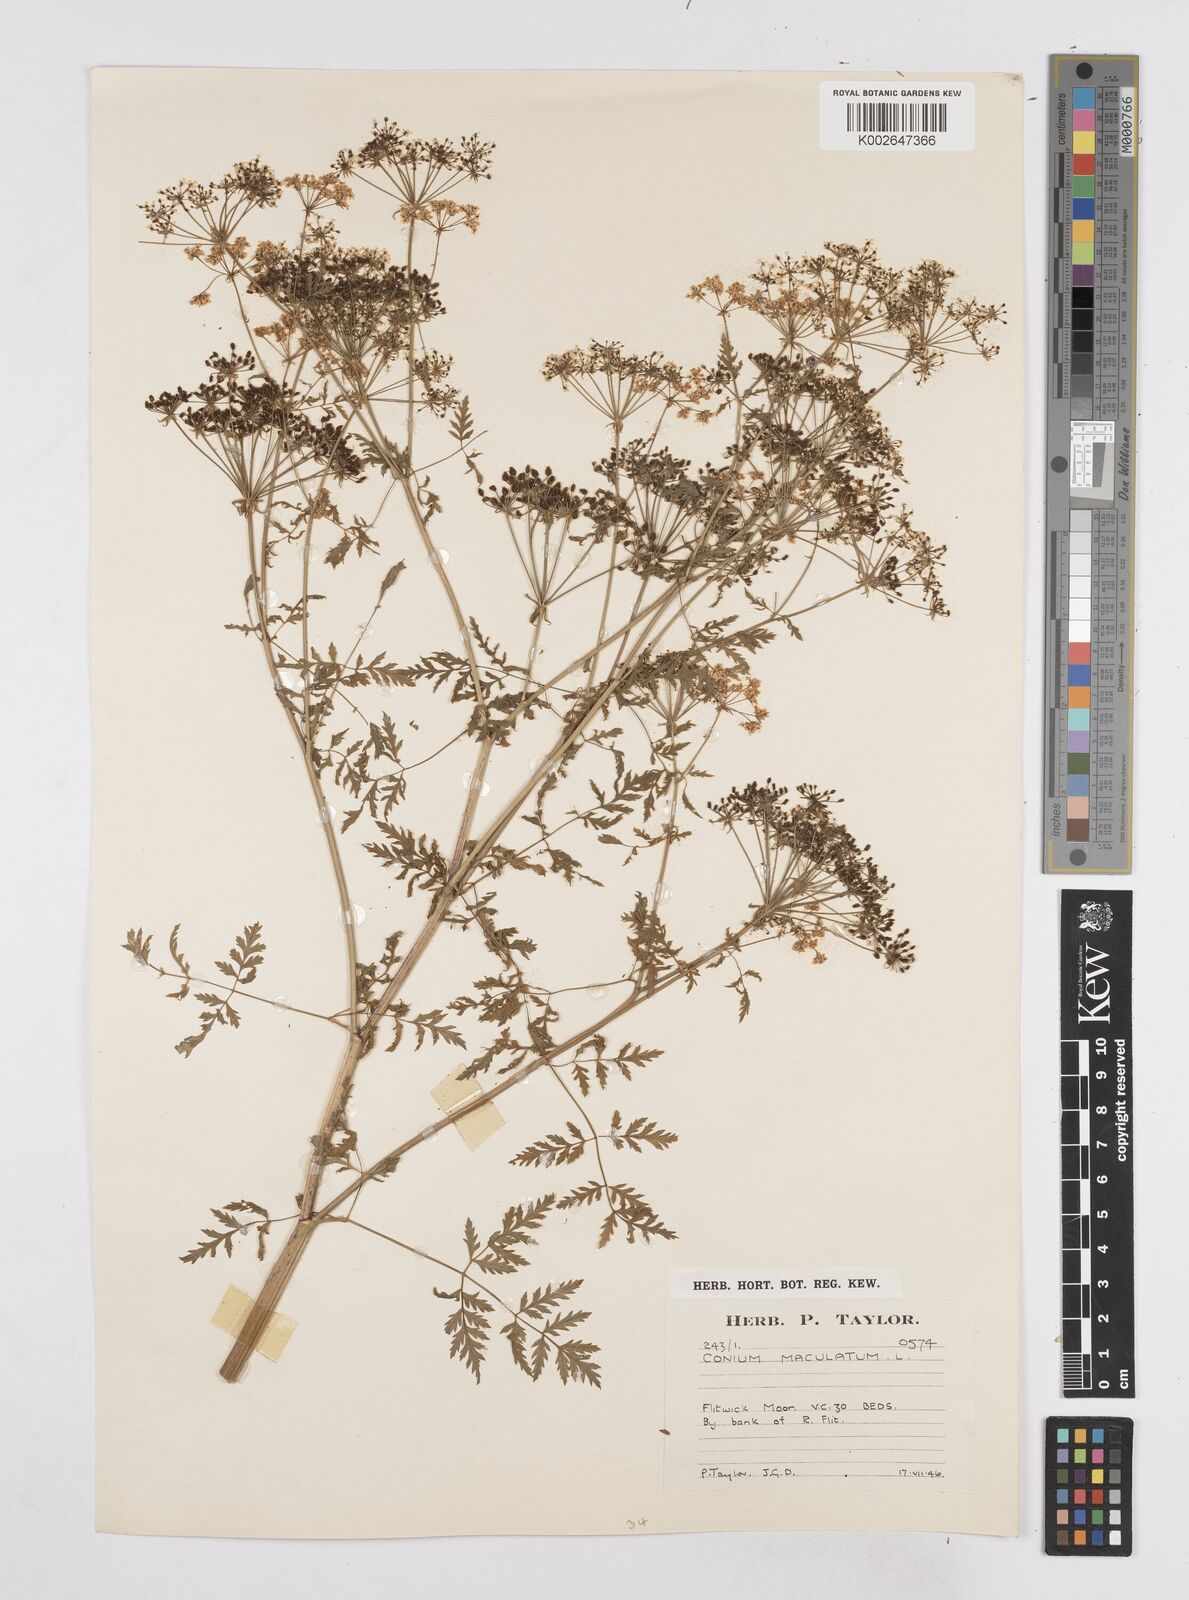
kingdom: Plantae
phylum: Tracheophyta
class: Magnoliopsida
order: Apiales
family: Apiaceae
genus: Conium
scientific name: Conium maculatum
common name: Hemlock
